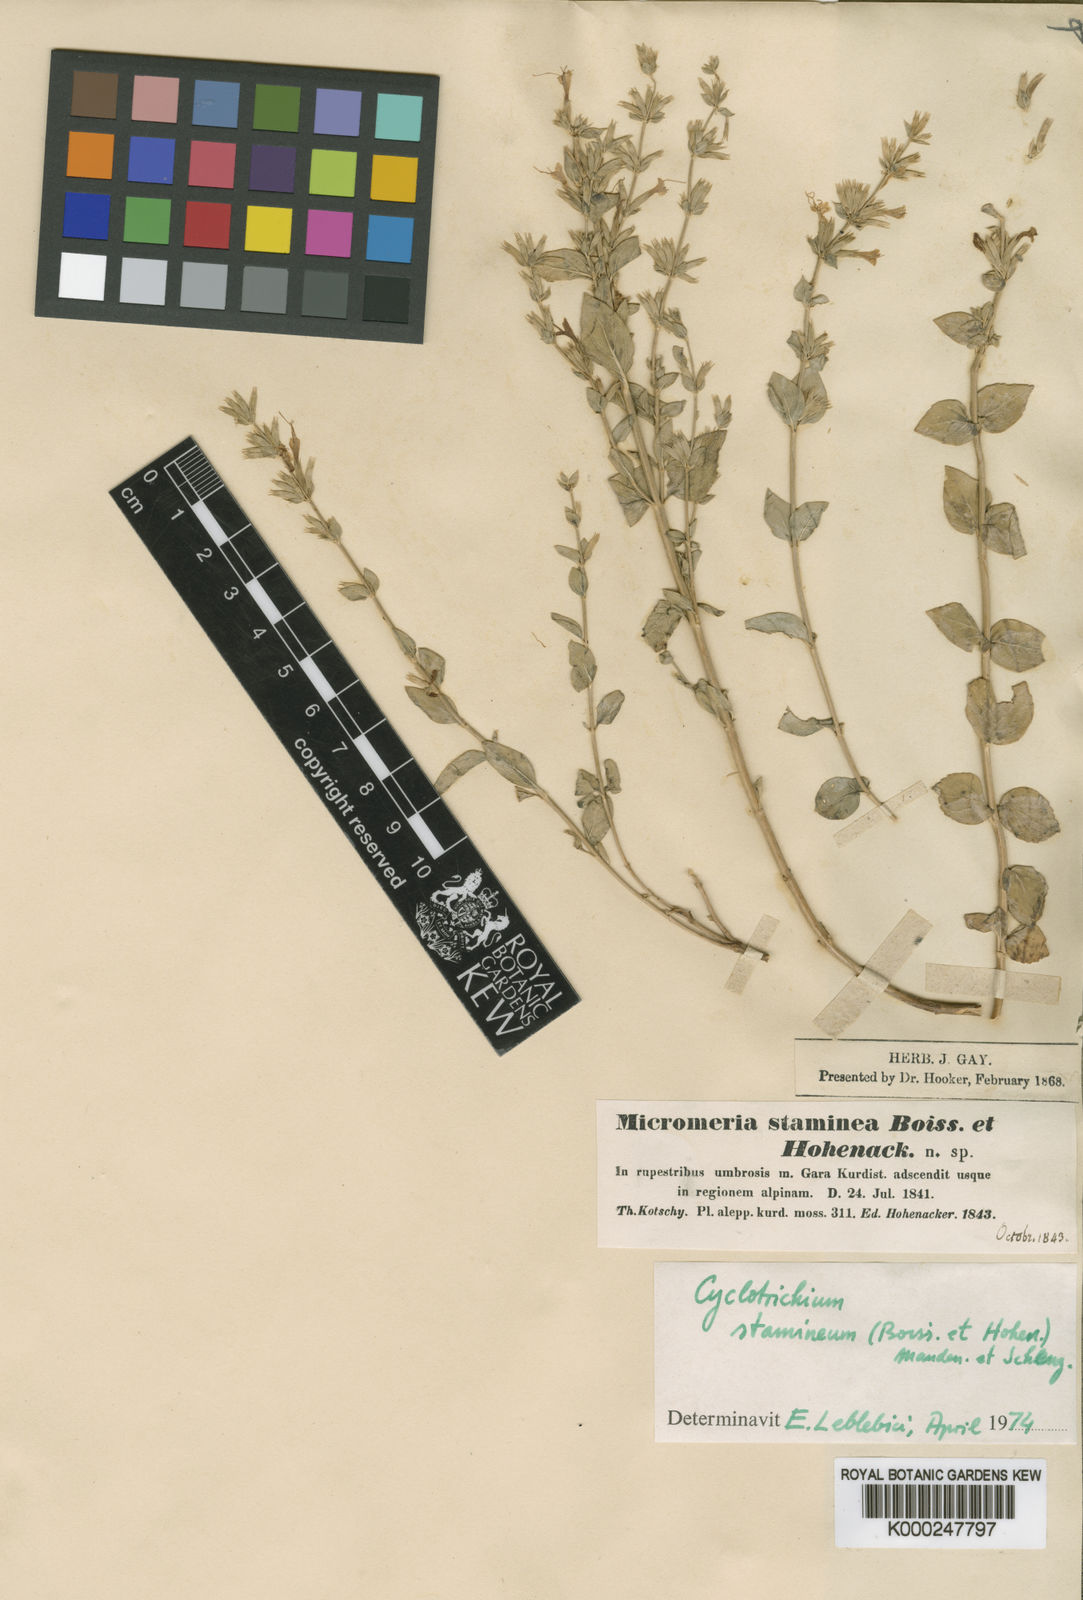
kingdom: Plantae
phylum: Tracheophyta
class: Magnoliopsida
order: Lamiales
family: Lamiaceae
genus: Cyclotrichium
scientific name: Cyclotrichium stamineum
